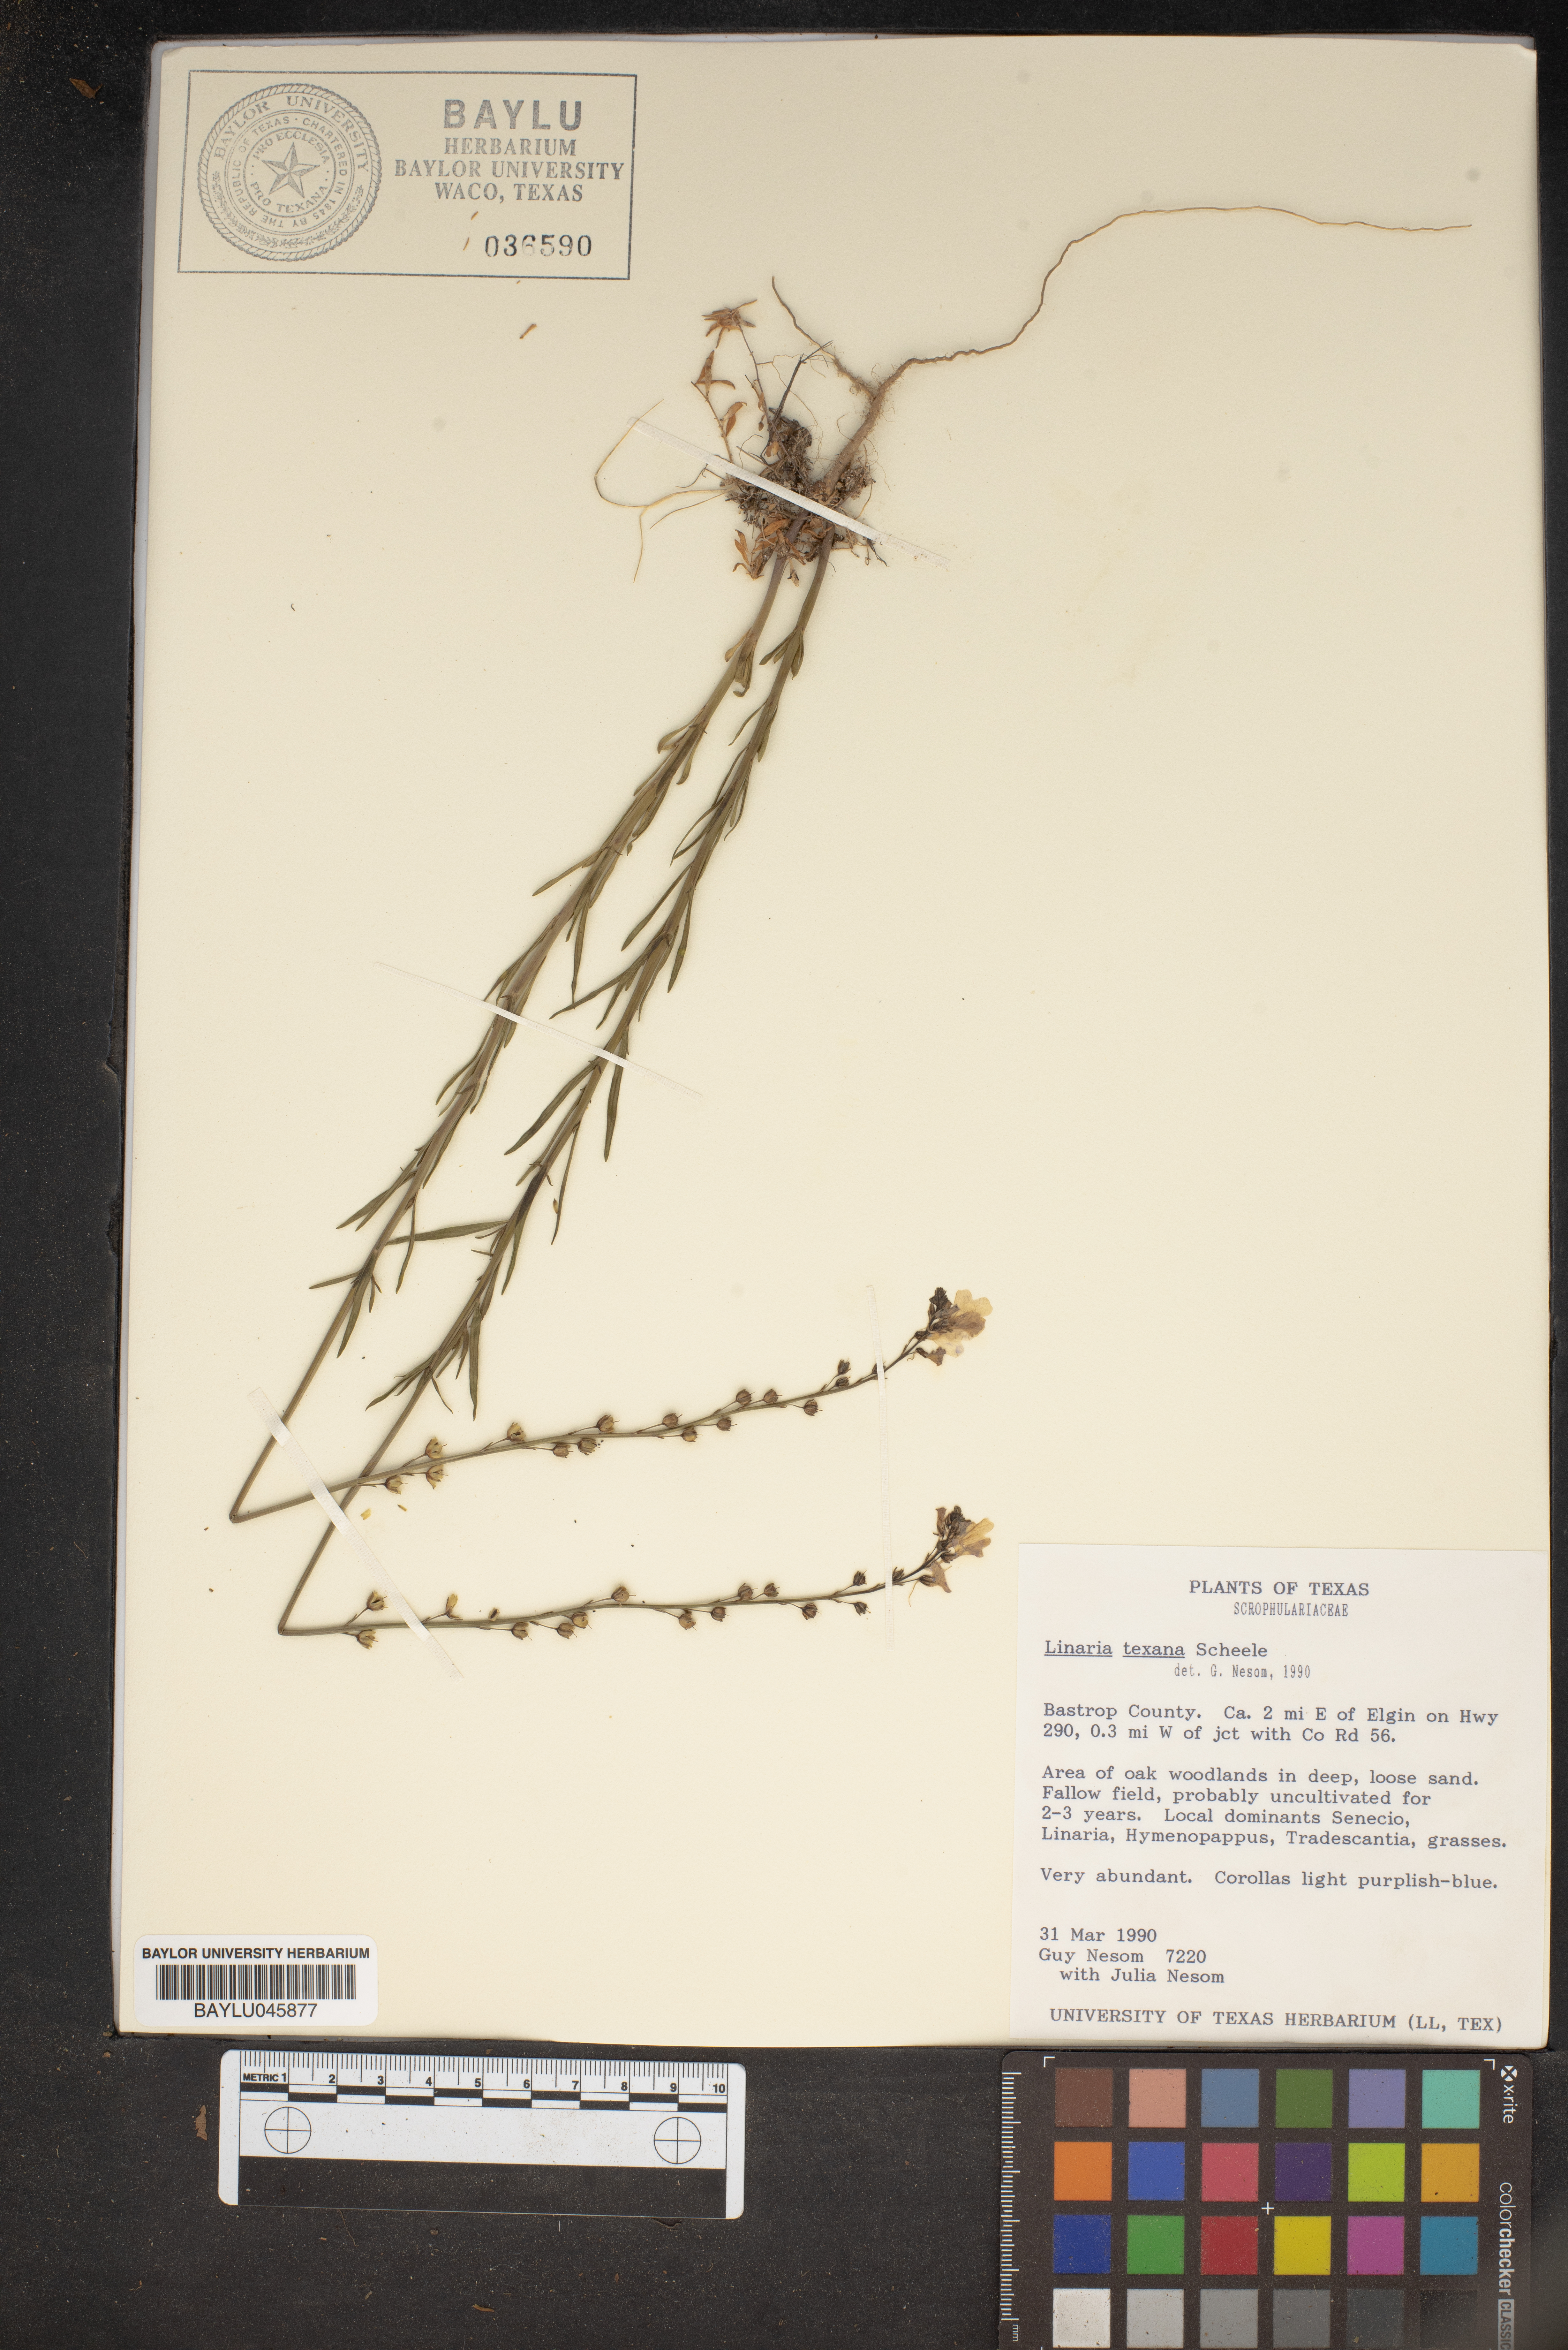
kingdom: Plantae
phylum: Tracheophyta
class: Magnoliopsida
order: Lamiales
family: Plantaginaceae
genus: Nuttallanthus
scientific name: Nuttallanthus texanus
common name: Texas toadflax
